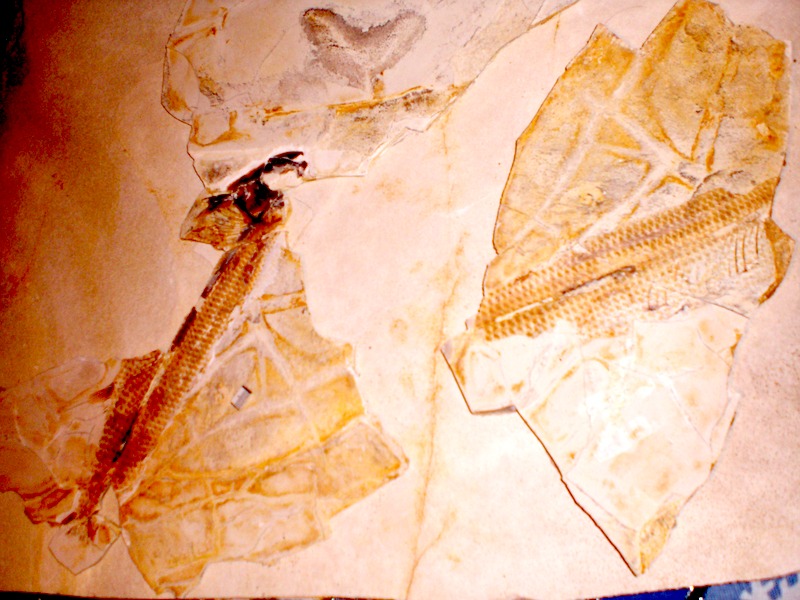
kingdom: Animalia
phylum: Chordata
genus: Thrissops
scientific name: Thrissops formosus
